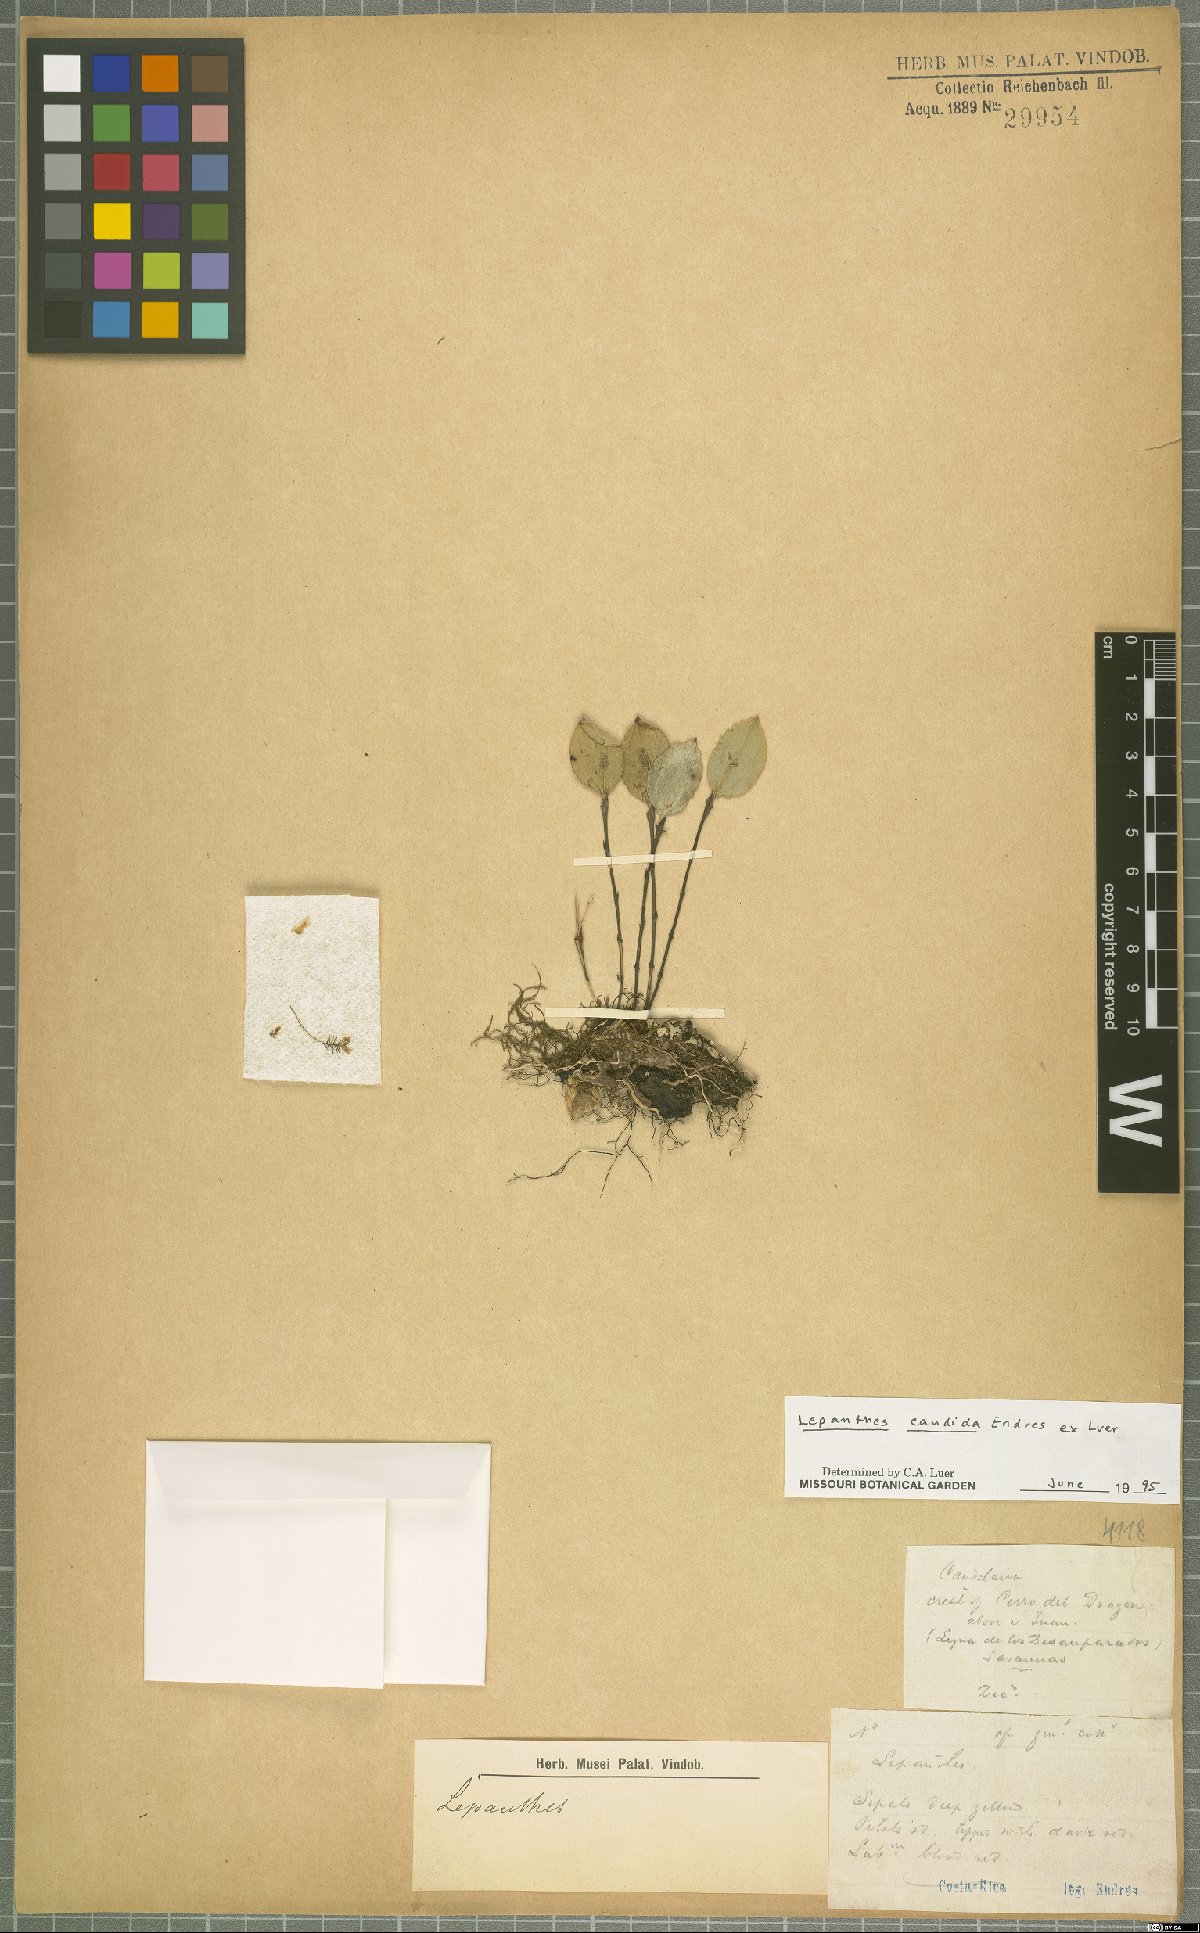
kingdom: Plantae
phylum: Tracheophyta
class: Liliopsida
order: Asparagales
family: Orchidaceae
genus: Lepanthes
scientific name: Lepanthes candida
